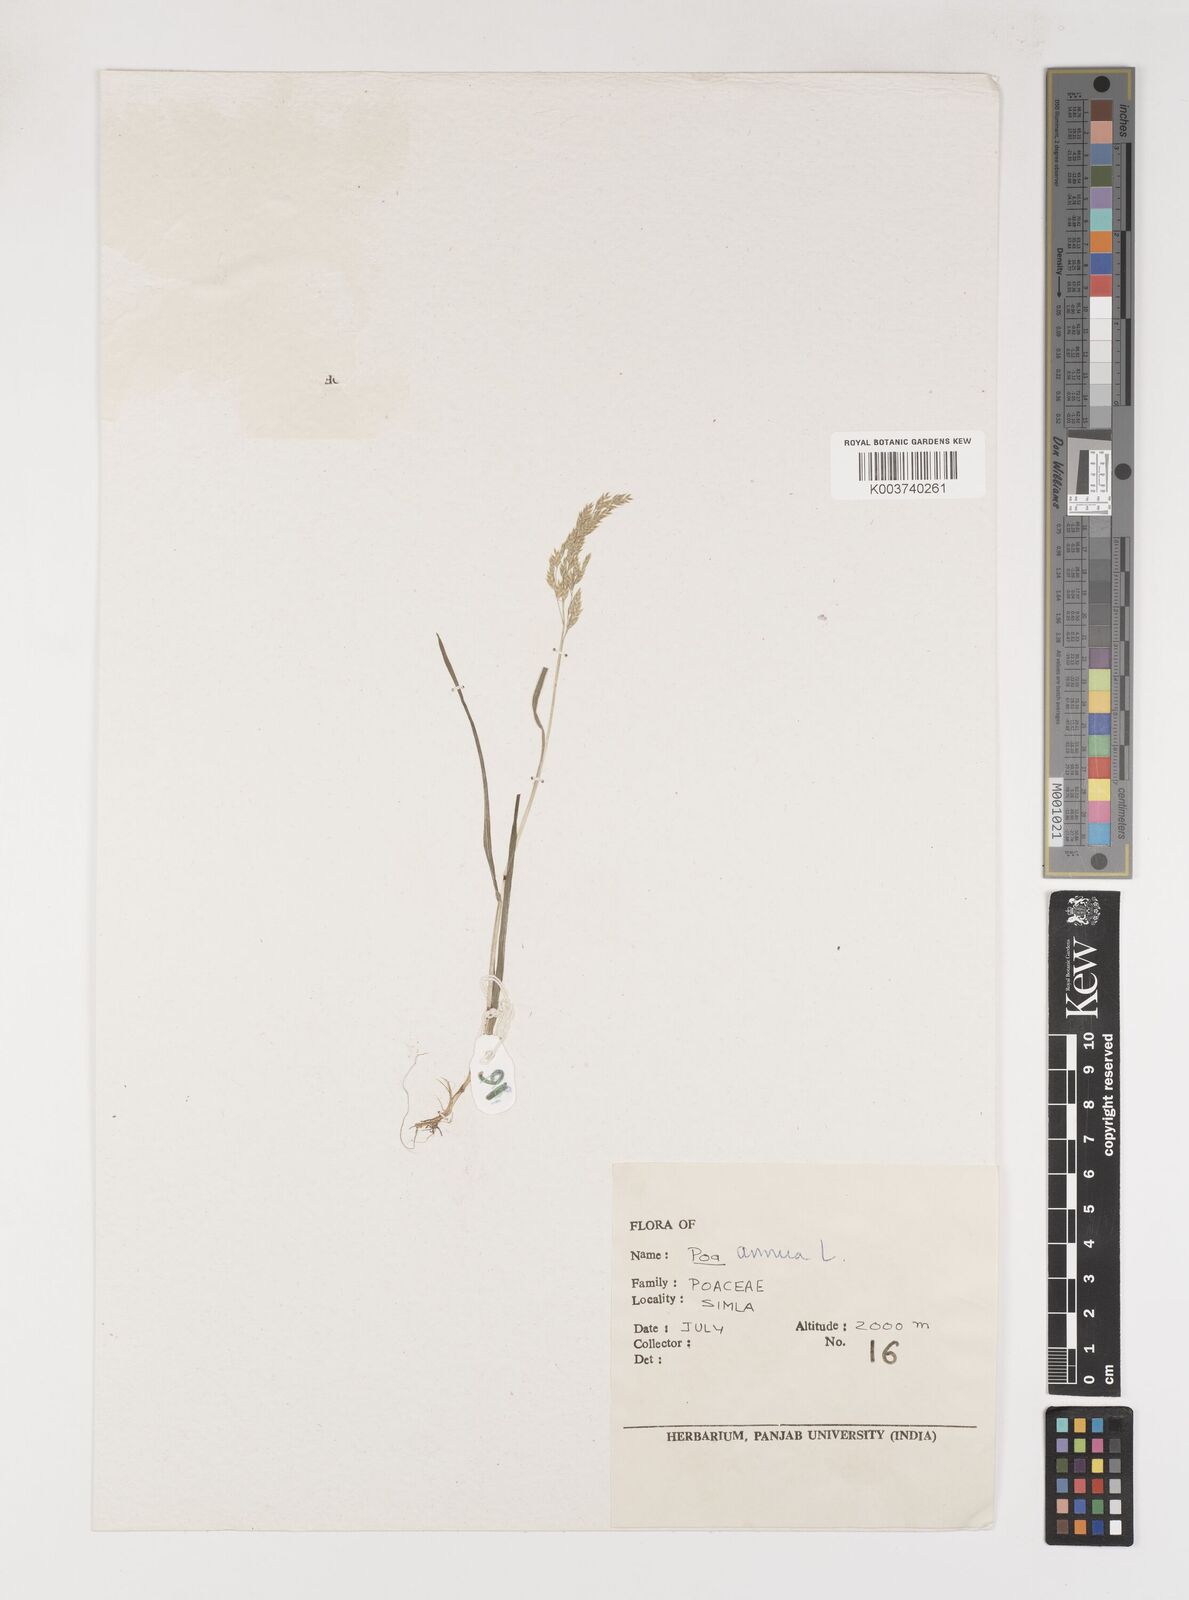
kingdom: Plantae
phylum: Tracheophyta
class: Liliopsida
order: Poales
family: Poaceae
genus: Poa
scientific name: Poa annua
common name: Annual bluegrass
